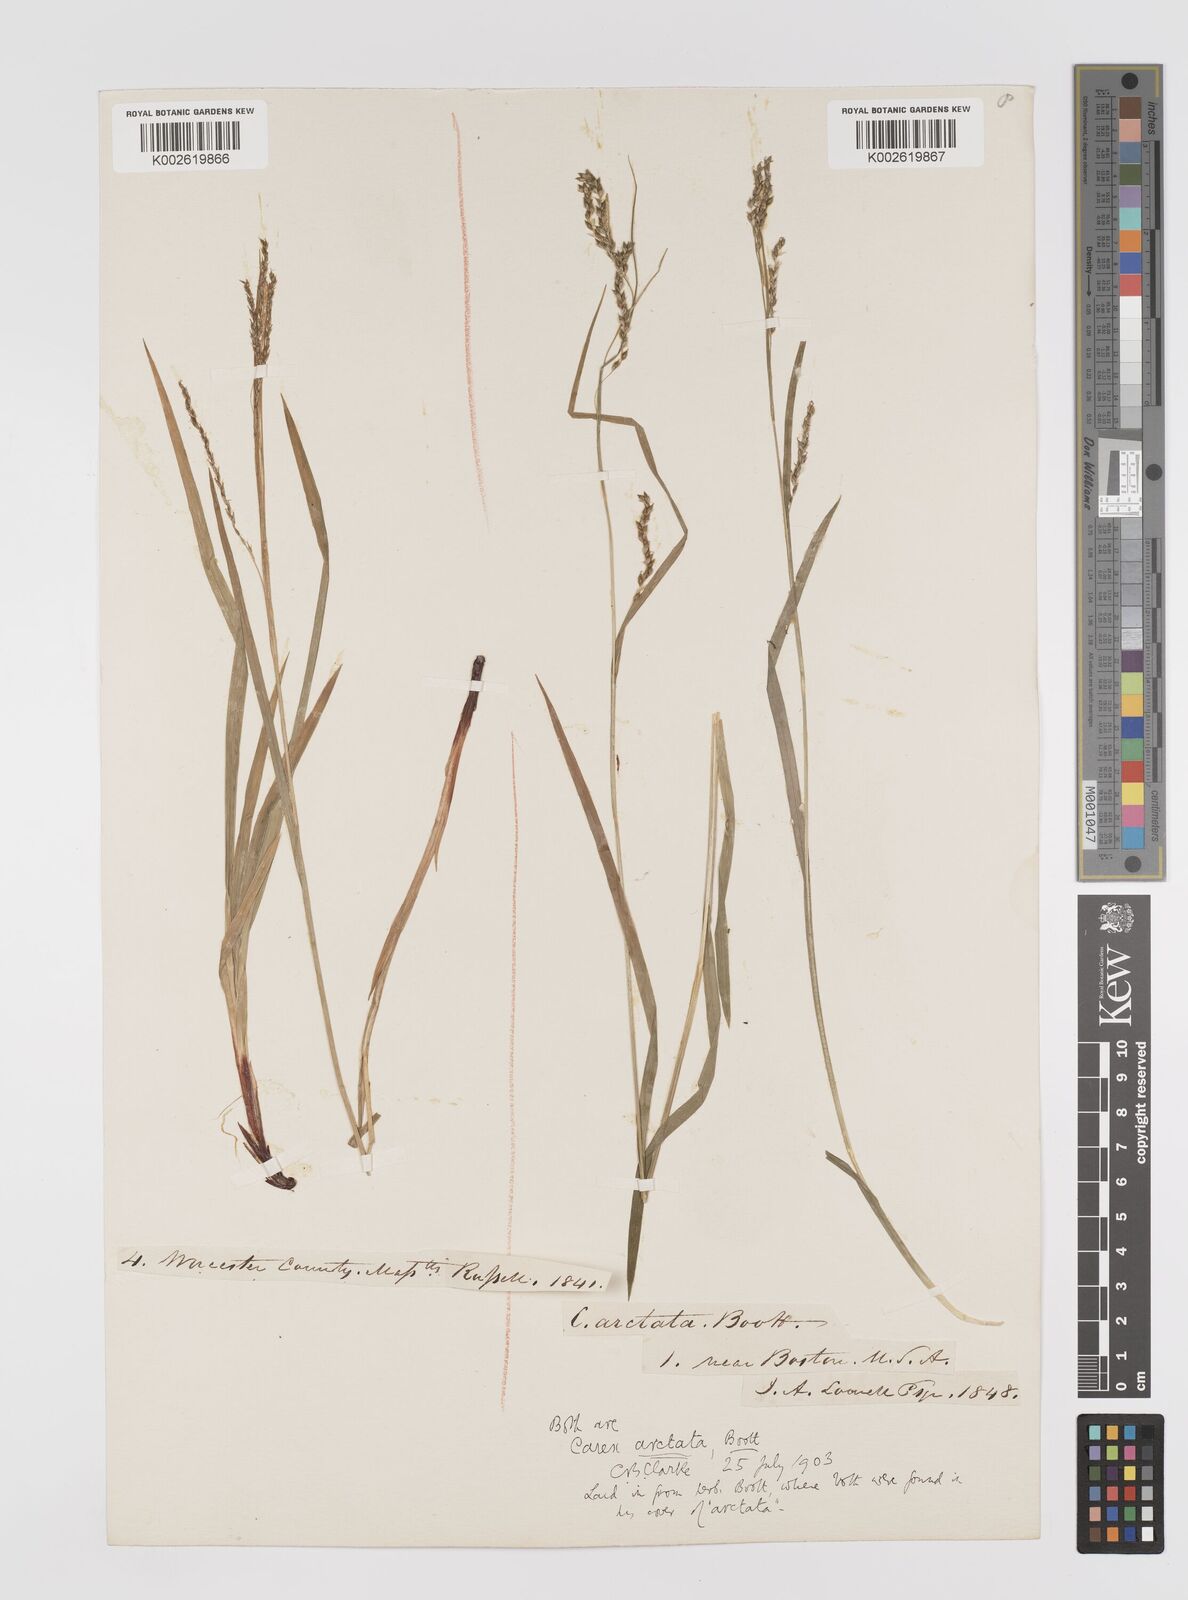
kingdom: Plantae
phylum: Tracheophyta
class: Liliopsida
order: Poales
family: Cyperaceae
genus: Carex
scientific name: Carex arctata
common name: Black sedge
